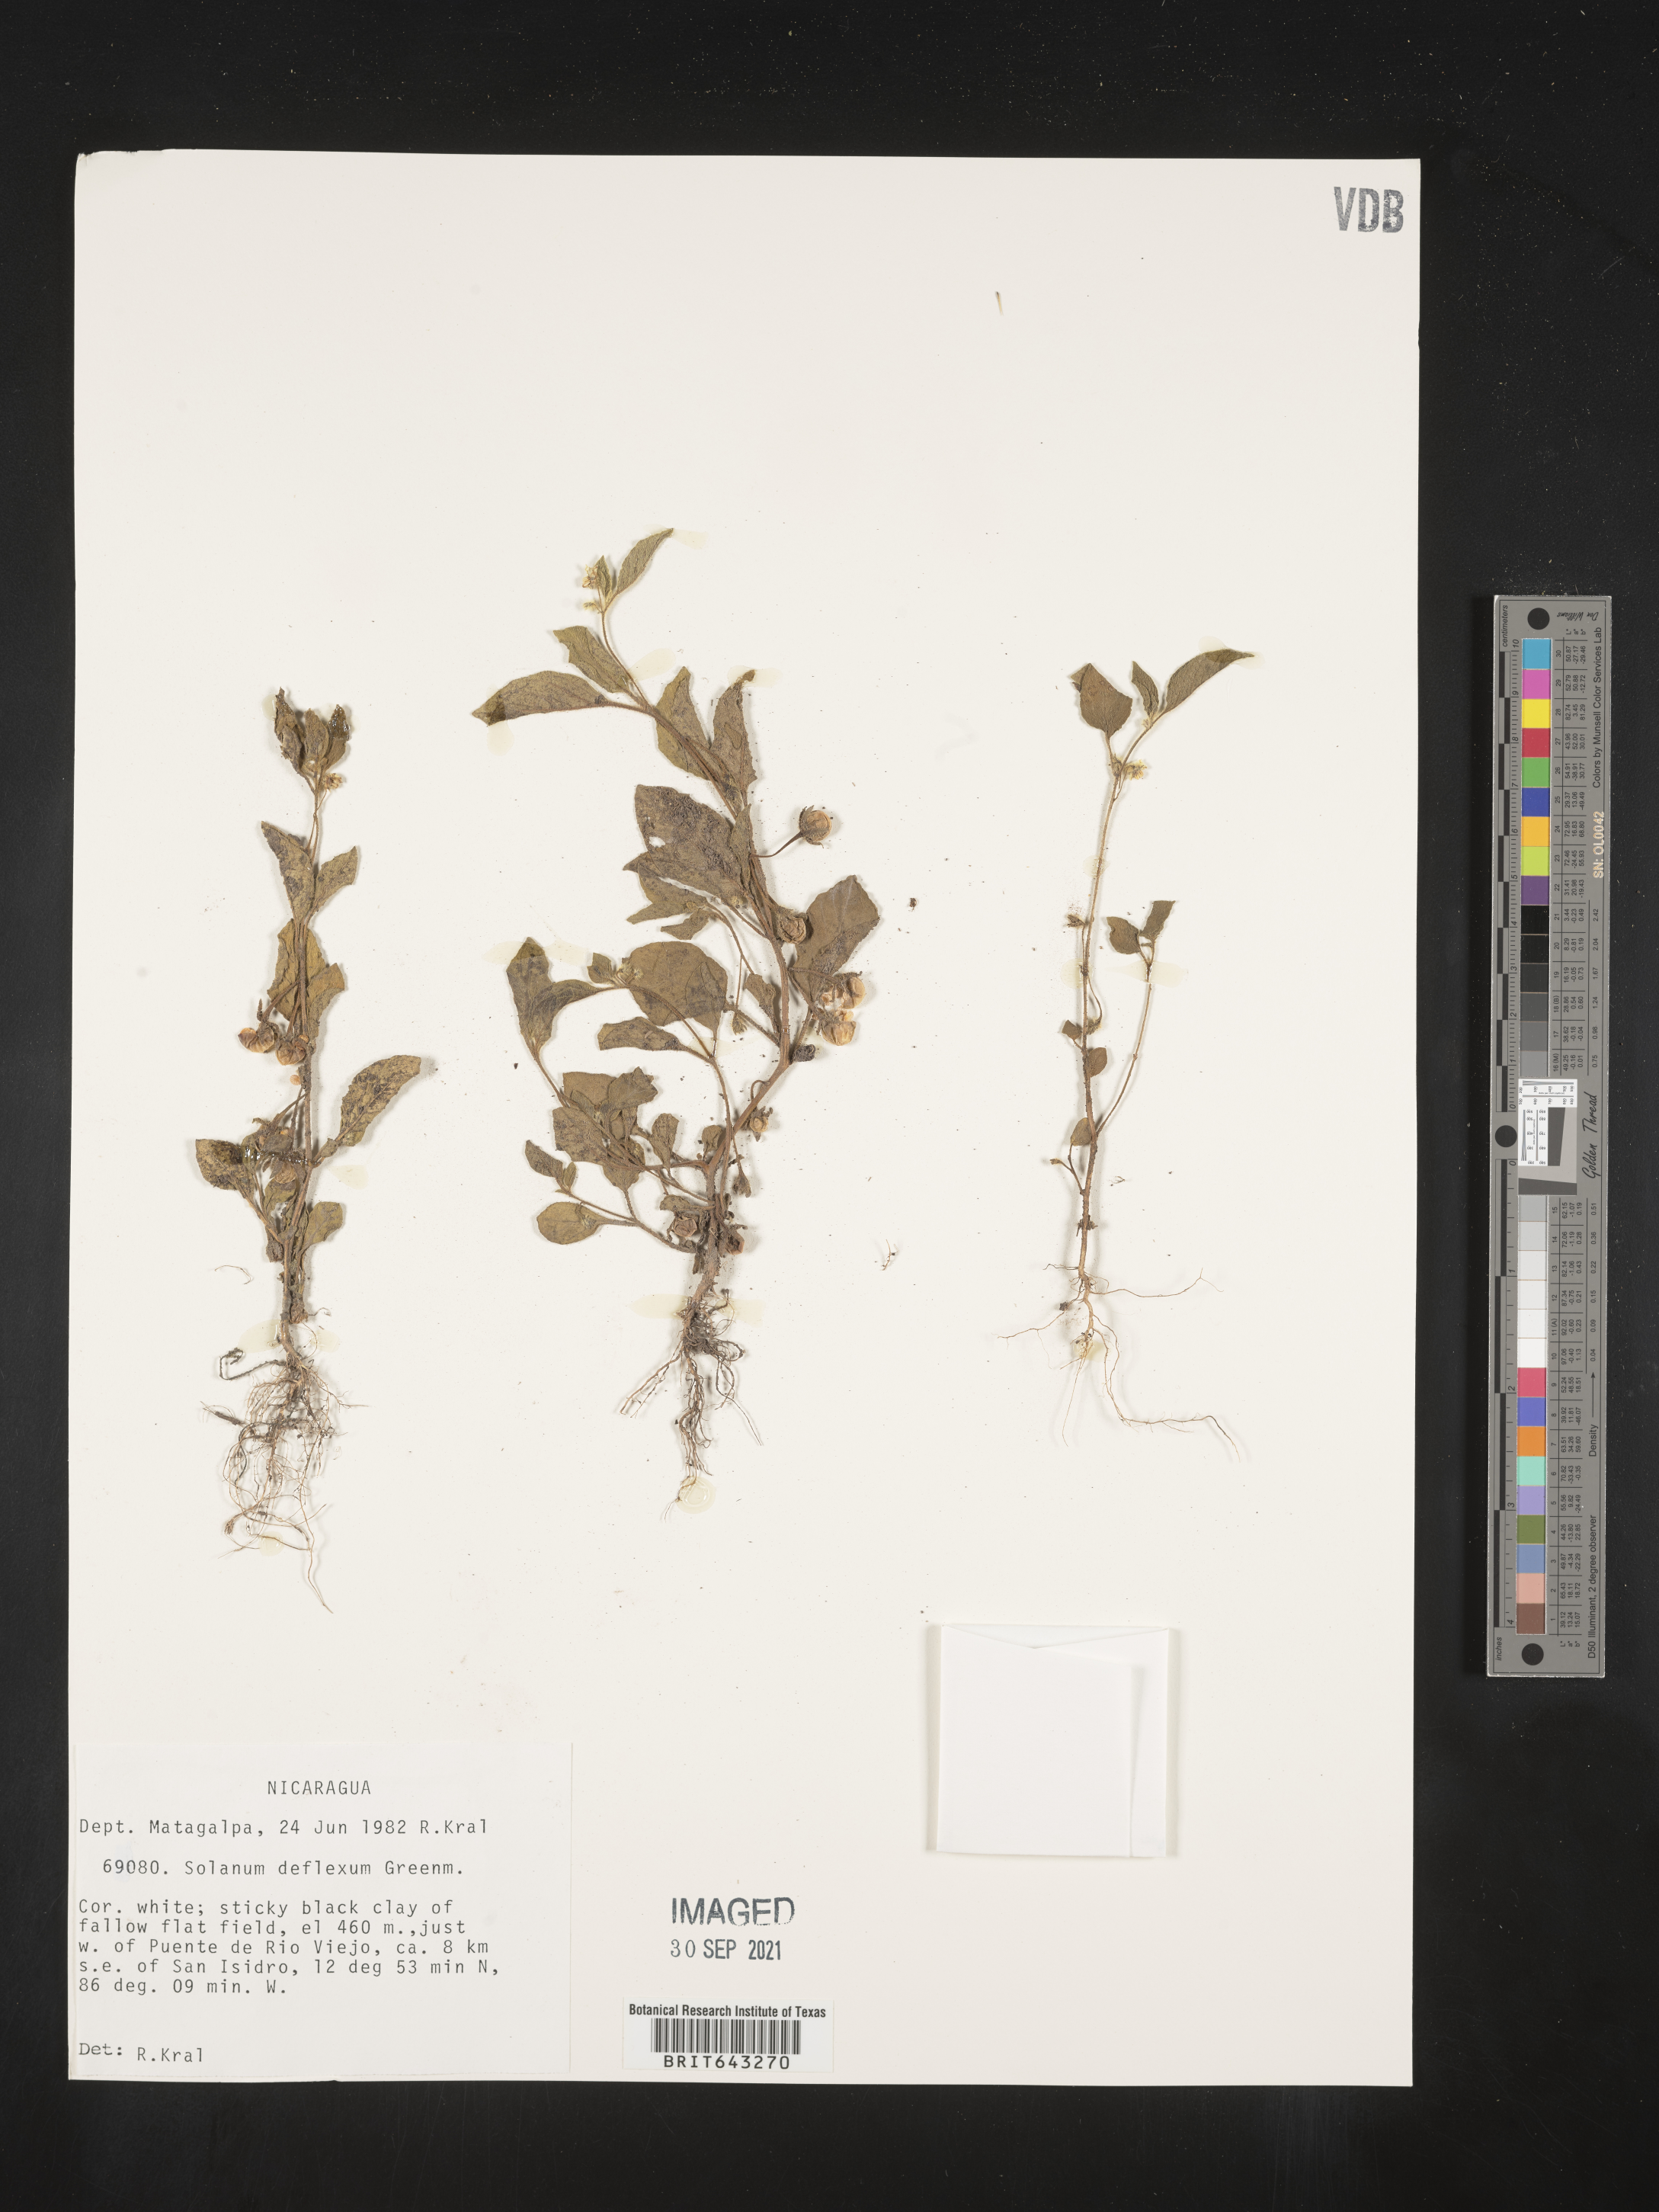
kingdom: Plantae
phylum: Tracheophyta
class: Magnoliopsida
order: Solanales
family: Solanaceae
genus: Solanum
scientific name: Solanum
